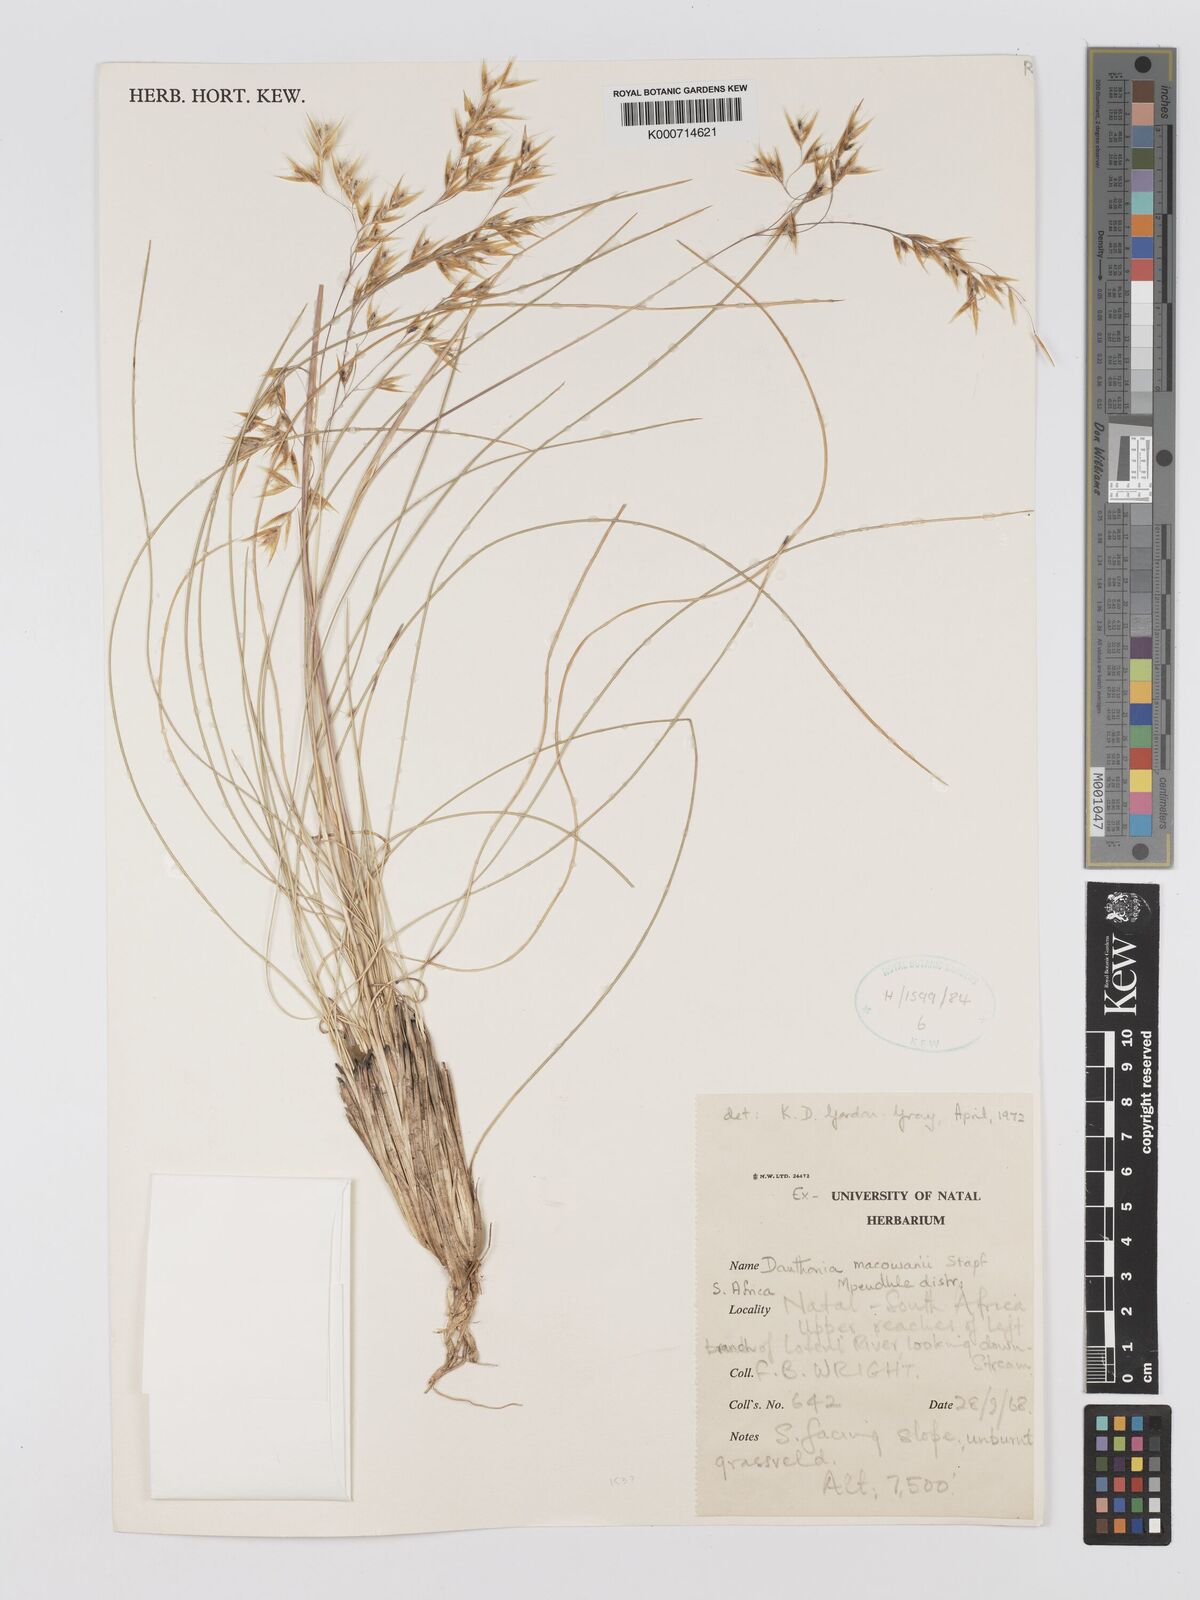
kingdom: Plantae
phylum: Tracheophyta
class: Liliopsida
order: Poales
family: Poaceae
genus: Rytidosperma
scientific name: Rytidosperma
